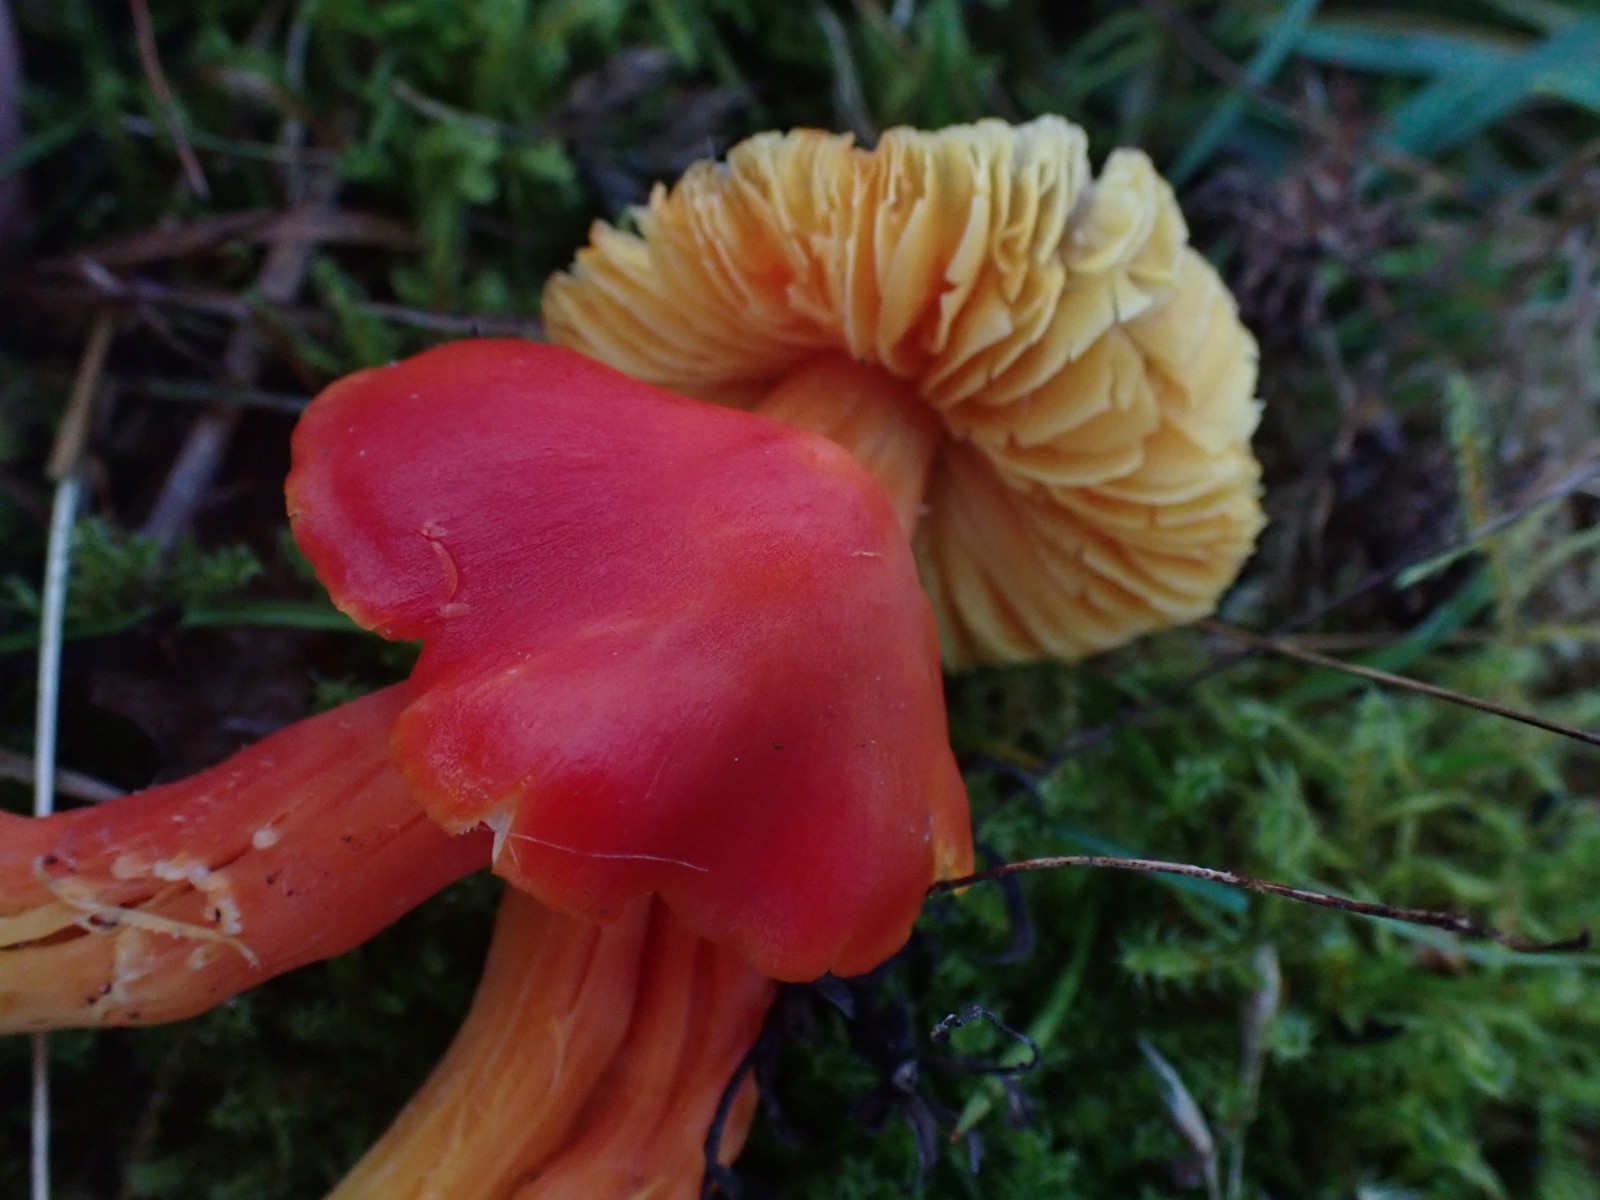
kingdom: Fungi
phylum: Basidiomycota
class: Agaricomycetes
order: Agaricales
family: Hygrophoraceae
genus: Hygrocybe
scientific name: Hygrocybe splendidissima
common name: knaldrød vokshat
